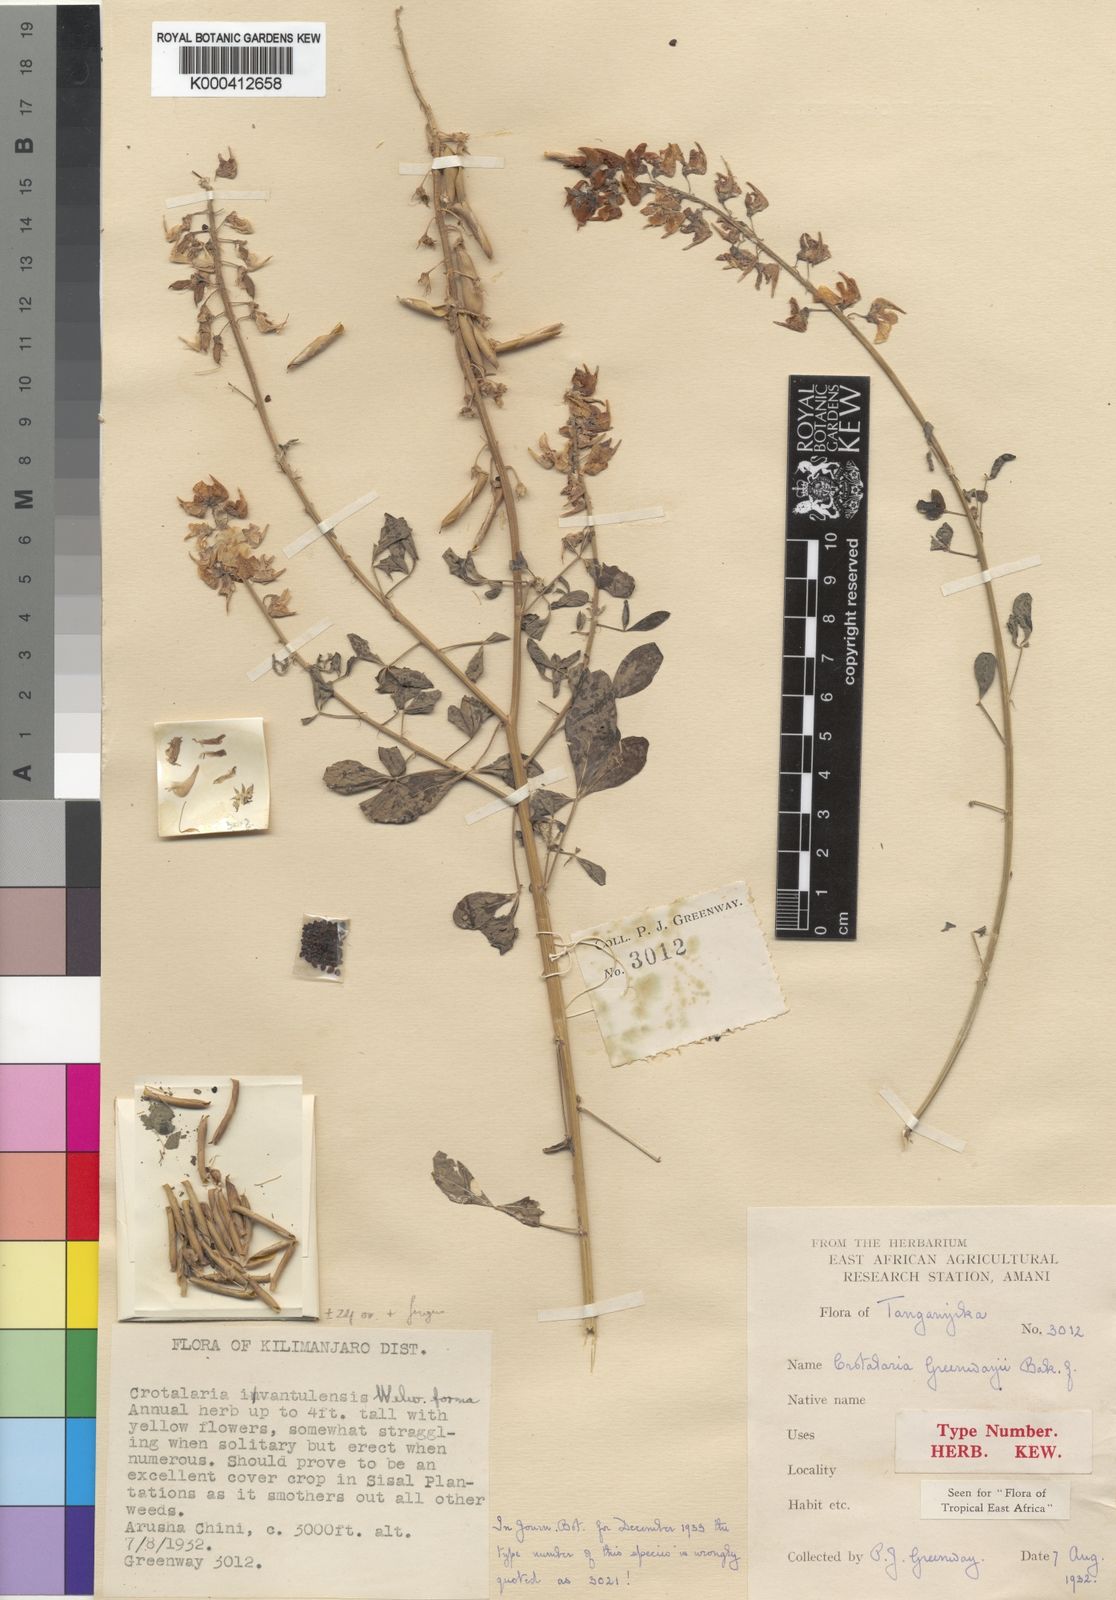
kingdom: Plantae
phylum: Tracheophyta
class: Magnoliopsida
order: Fabales
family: Fabaceae
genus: Crotalaria
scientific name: Crotalaria greenwayi
